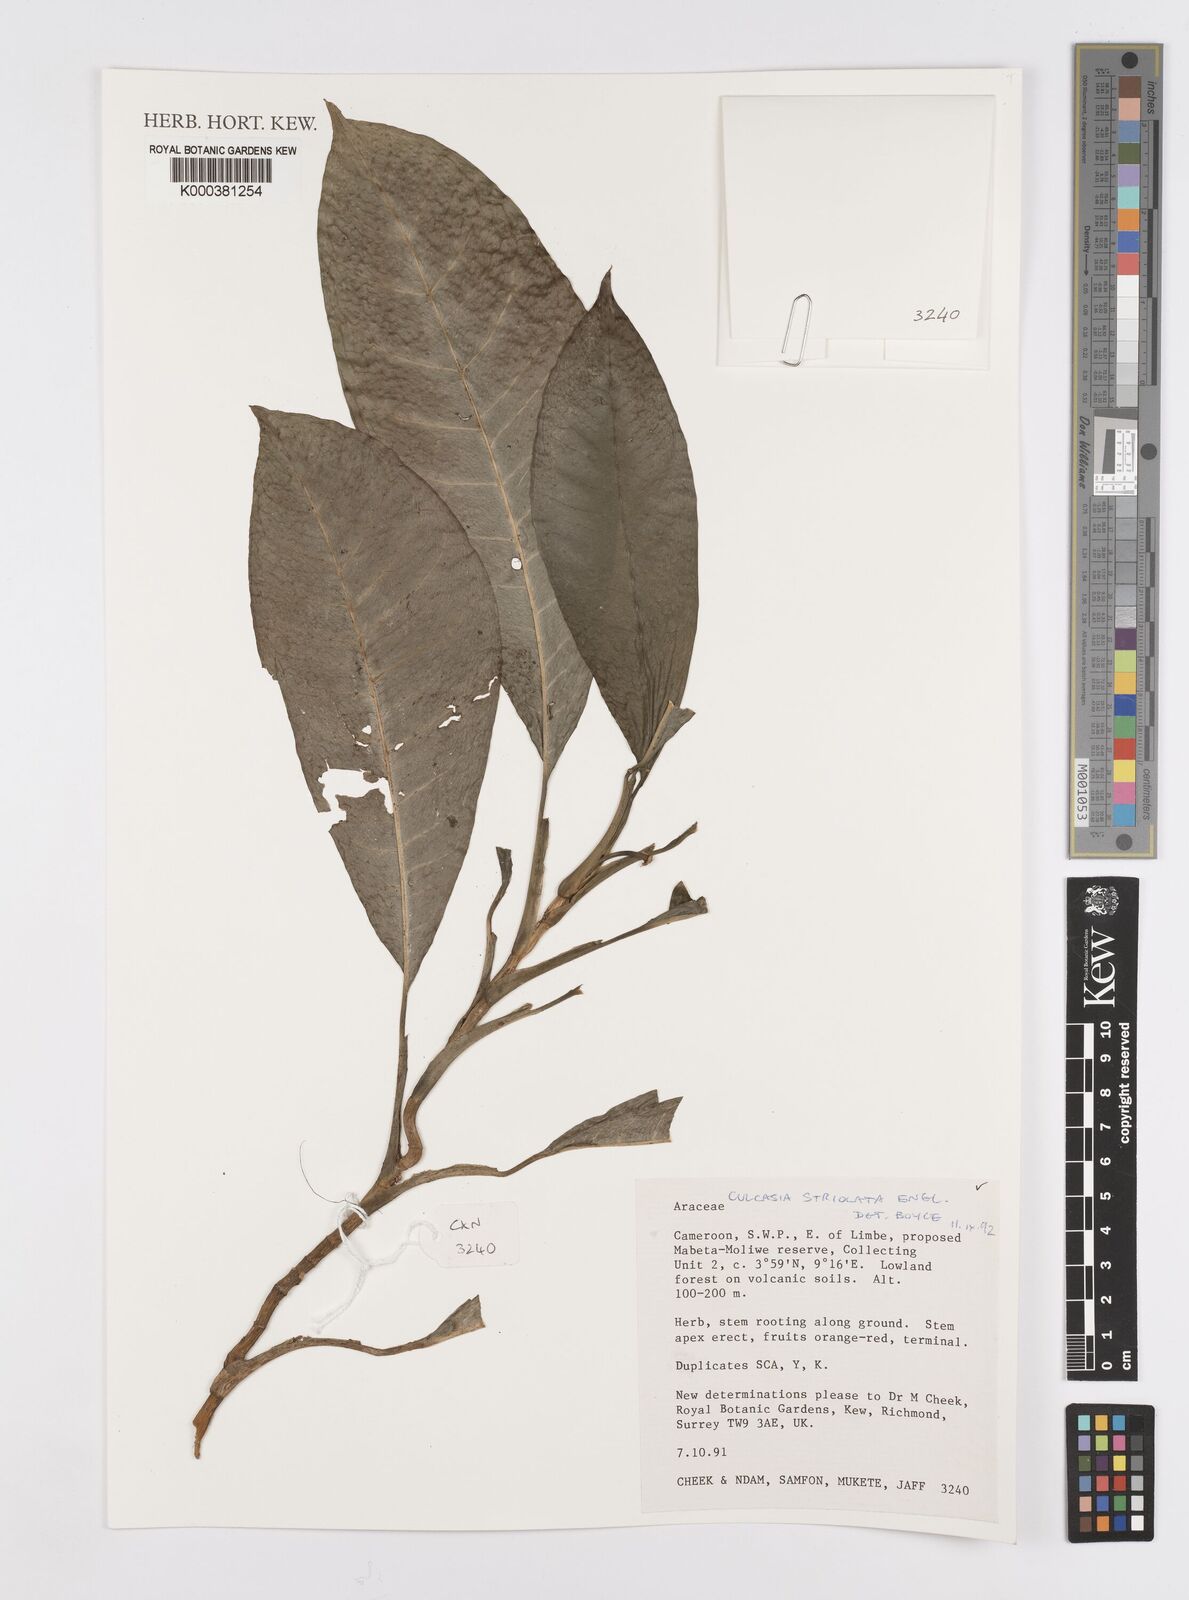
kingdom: Plantae
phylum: Tracheophyta
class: Liliopsida
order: Alismatales
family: Araceae
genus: Culcasia
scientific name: Culcasia striolata
